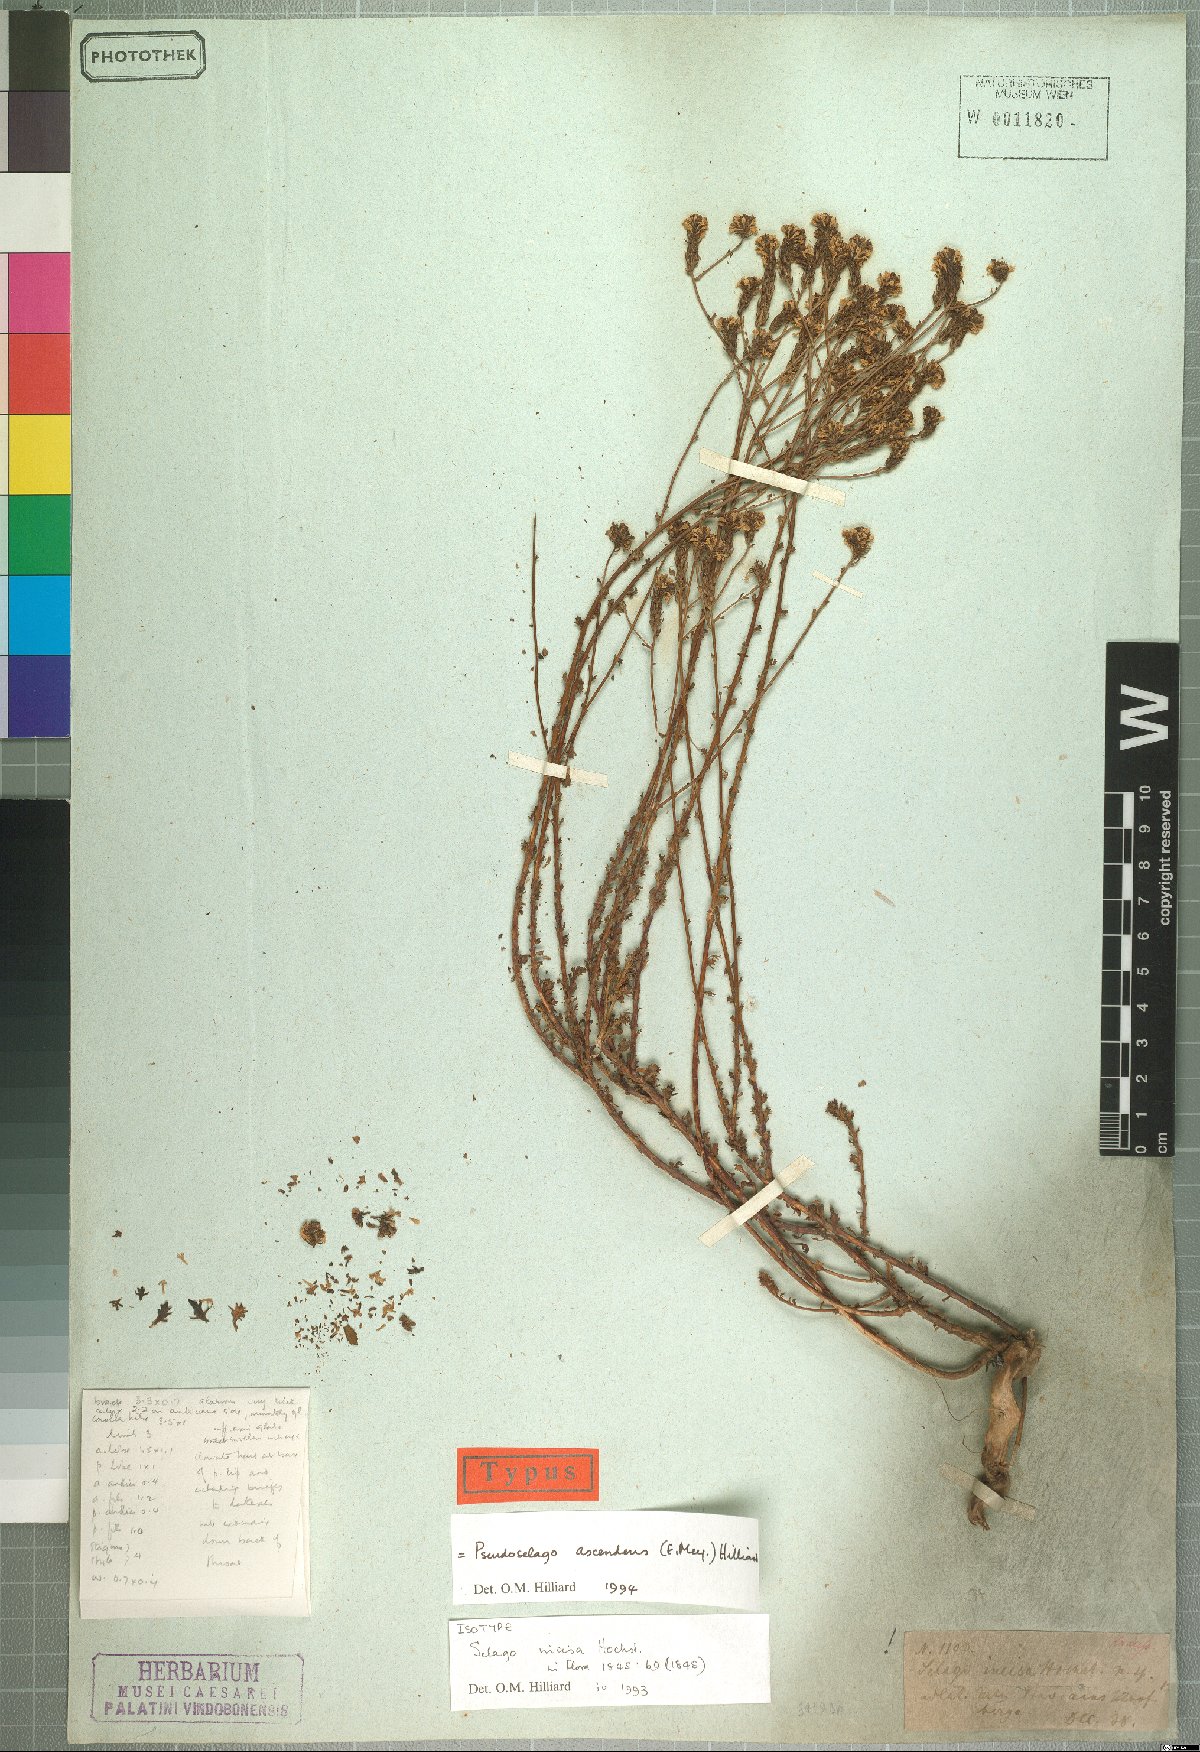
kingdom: Plantae
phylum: Tracheophyta
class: Magnoliopsida
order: Lamiales
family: Scrophulariaceae
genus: Pseudoselago
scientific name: Pseudoselago ascendens
